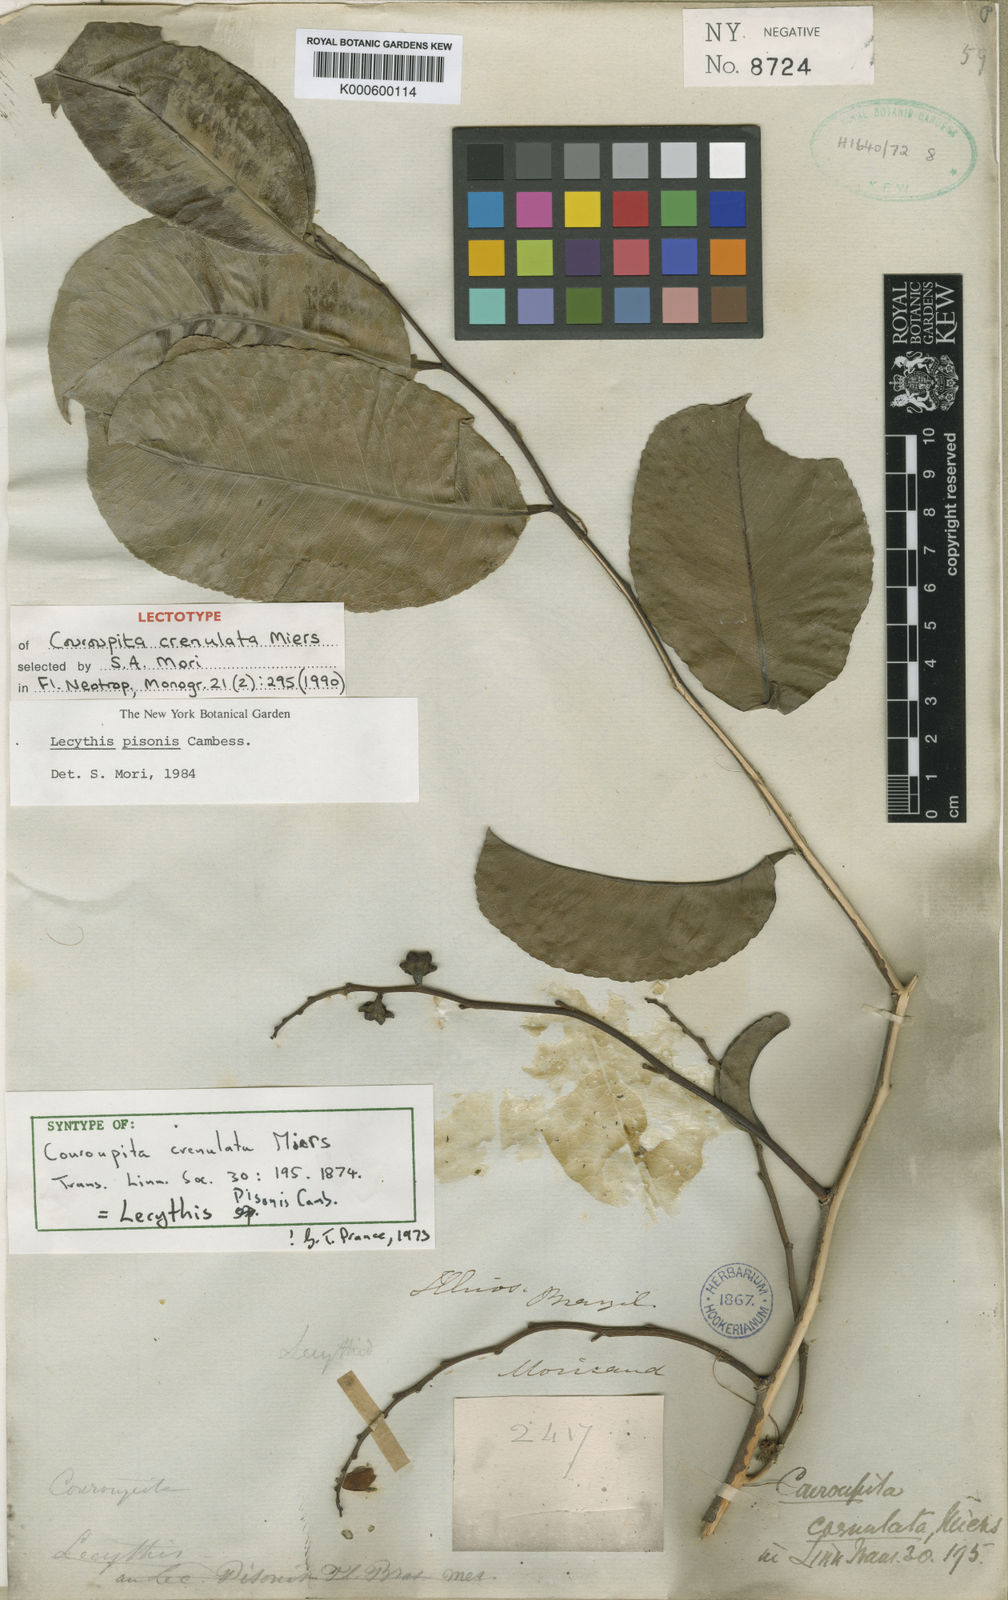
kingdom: Plantae
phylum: Tracheophyta
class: Magnoliopsida
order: Ericales
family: Lecythidaceae
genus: Lecythis
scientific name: Lecythis pisonis
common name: Paradise-nut
